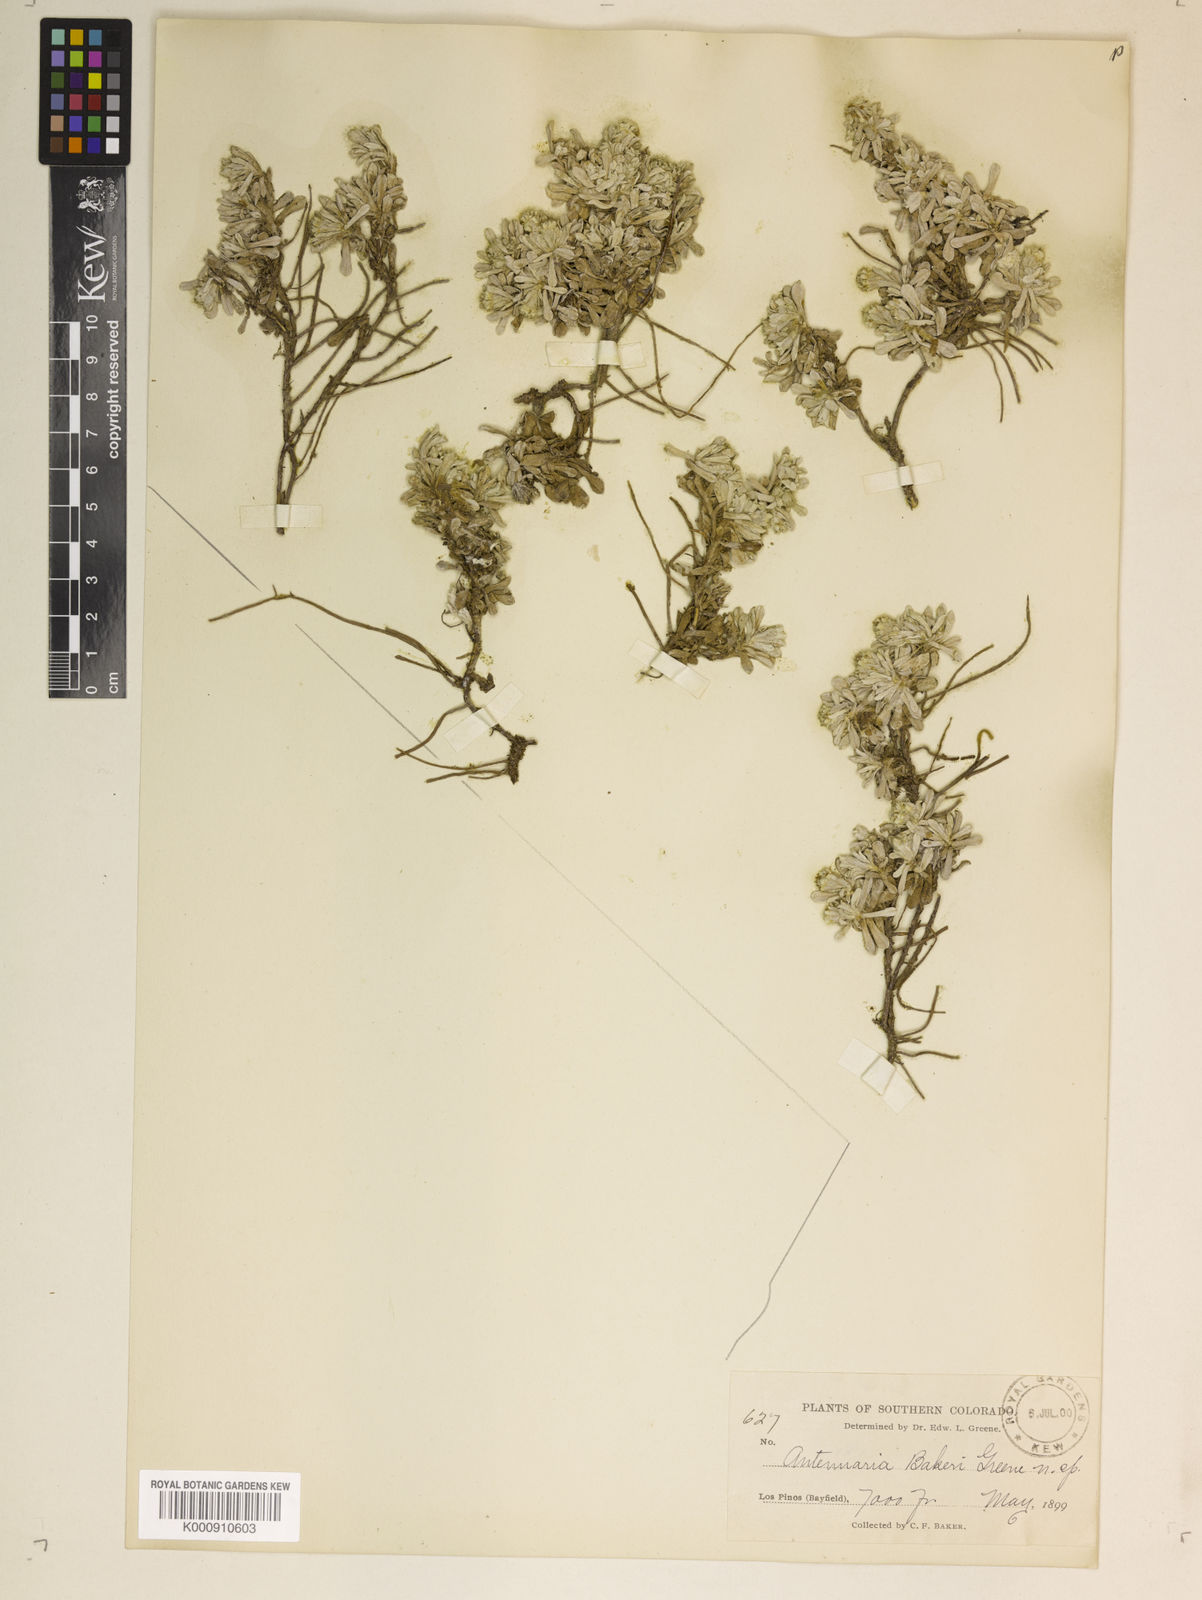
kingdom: Plantae
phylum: Tracheophyta
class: Magnoliopsida
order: Asterales
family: Asteraceae
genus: Antennaria
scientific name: Antennaria
